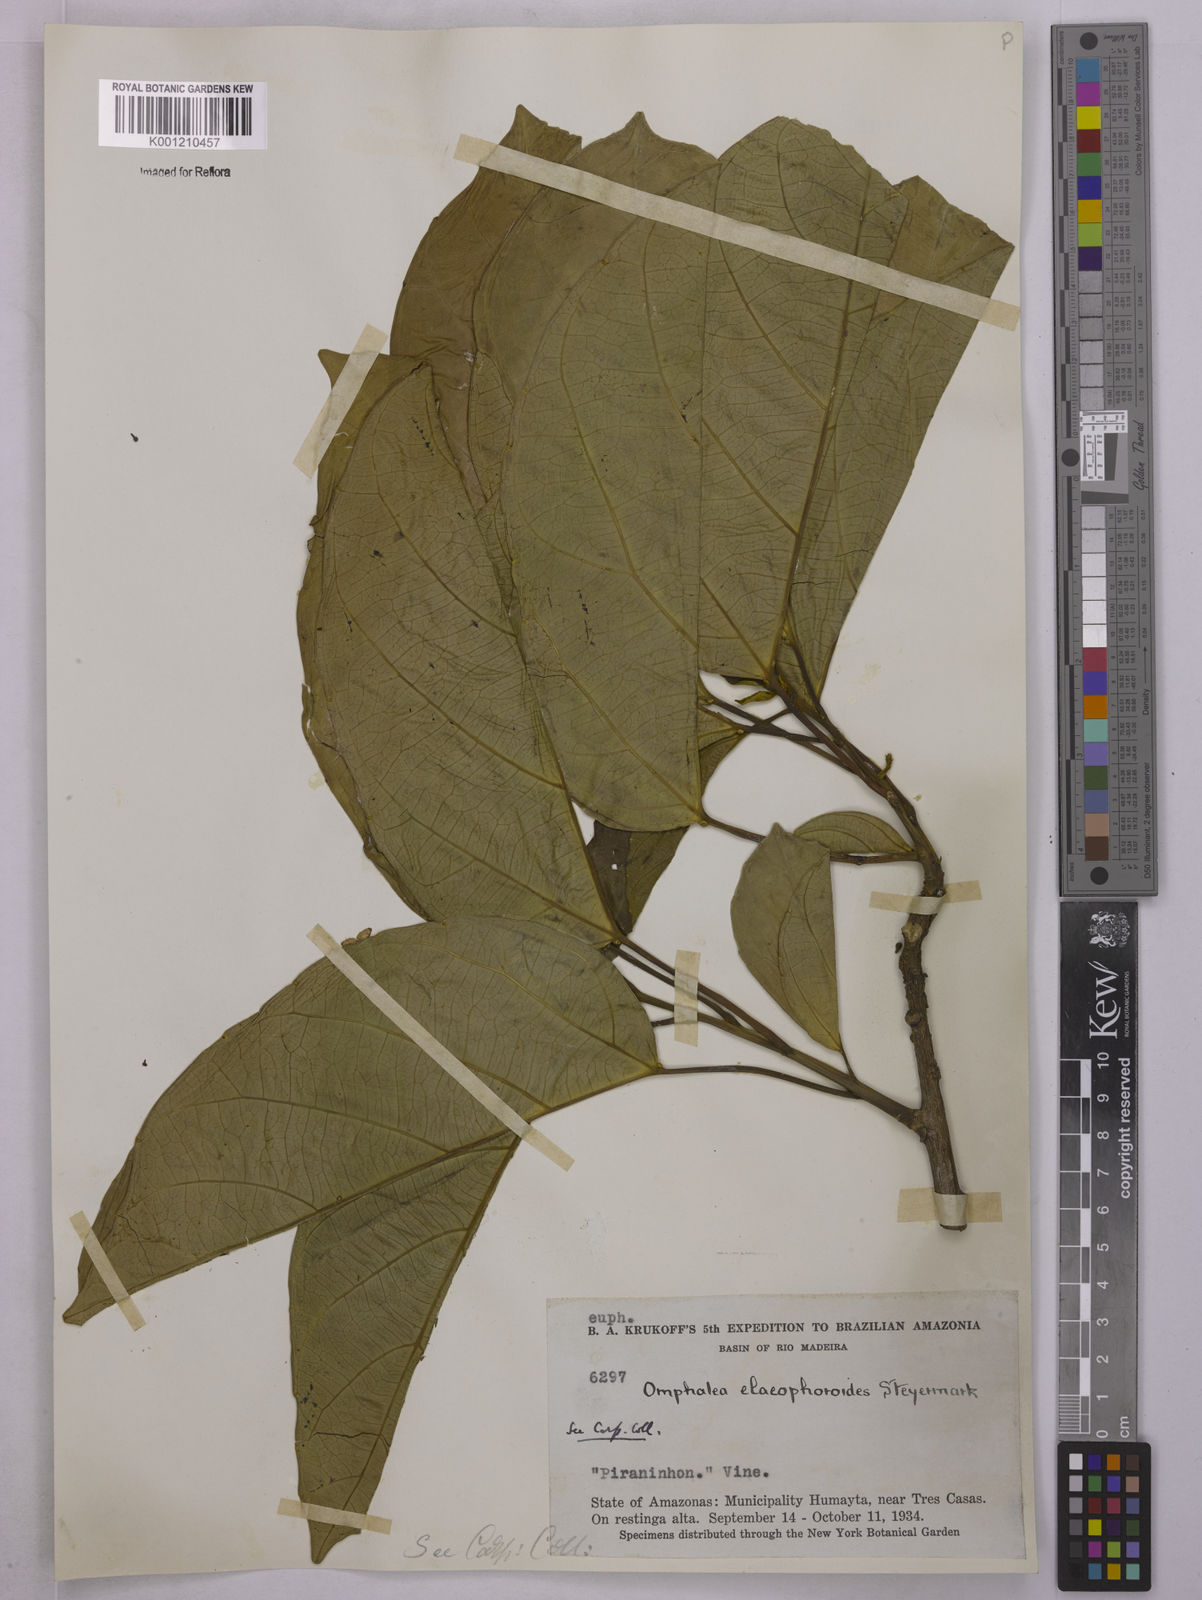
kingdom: Plantae
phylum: Tracheophyta
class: Magnoliopsida
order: Malpighiales
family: Euphorbiaceae
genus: Omphalea
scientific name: Omphalea
